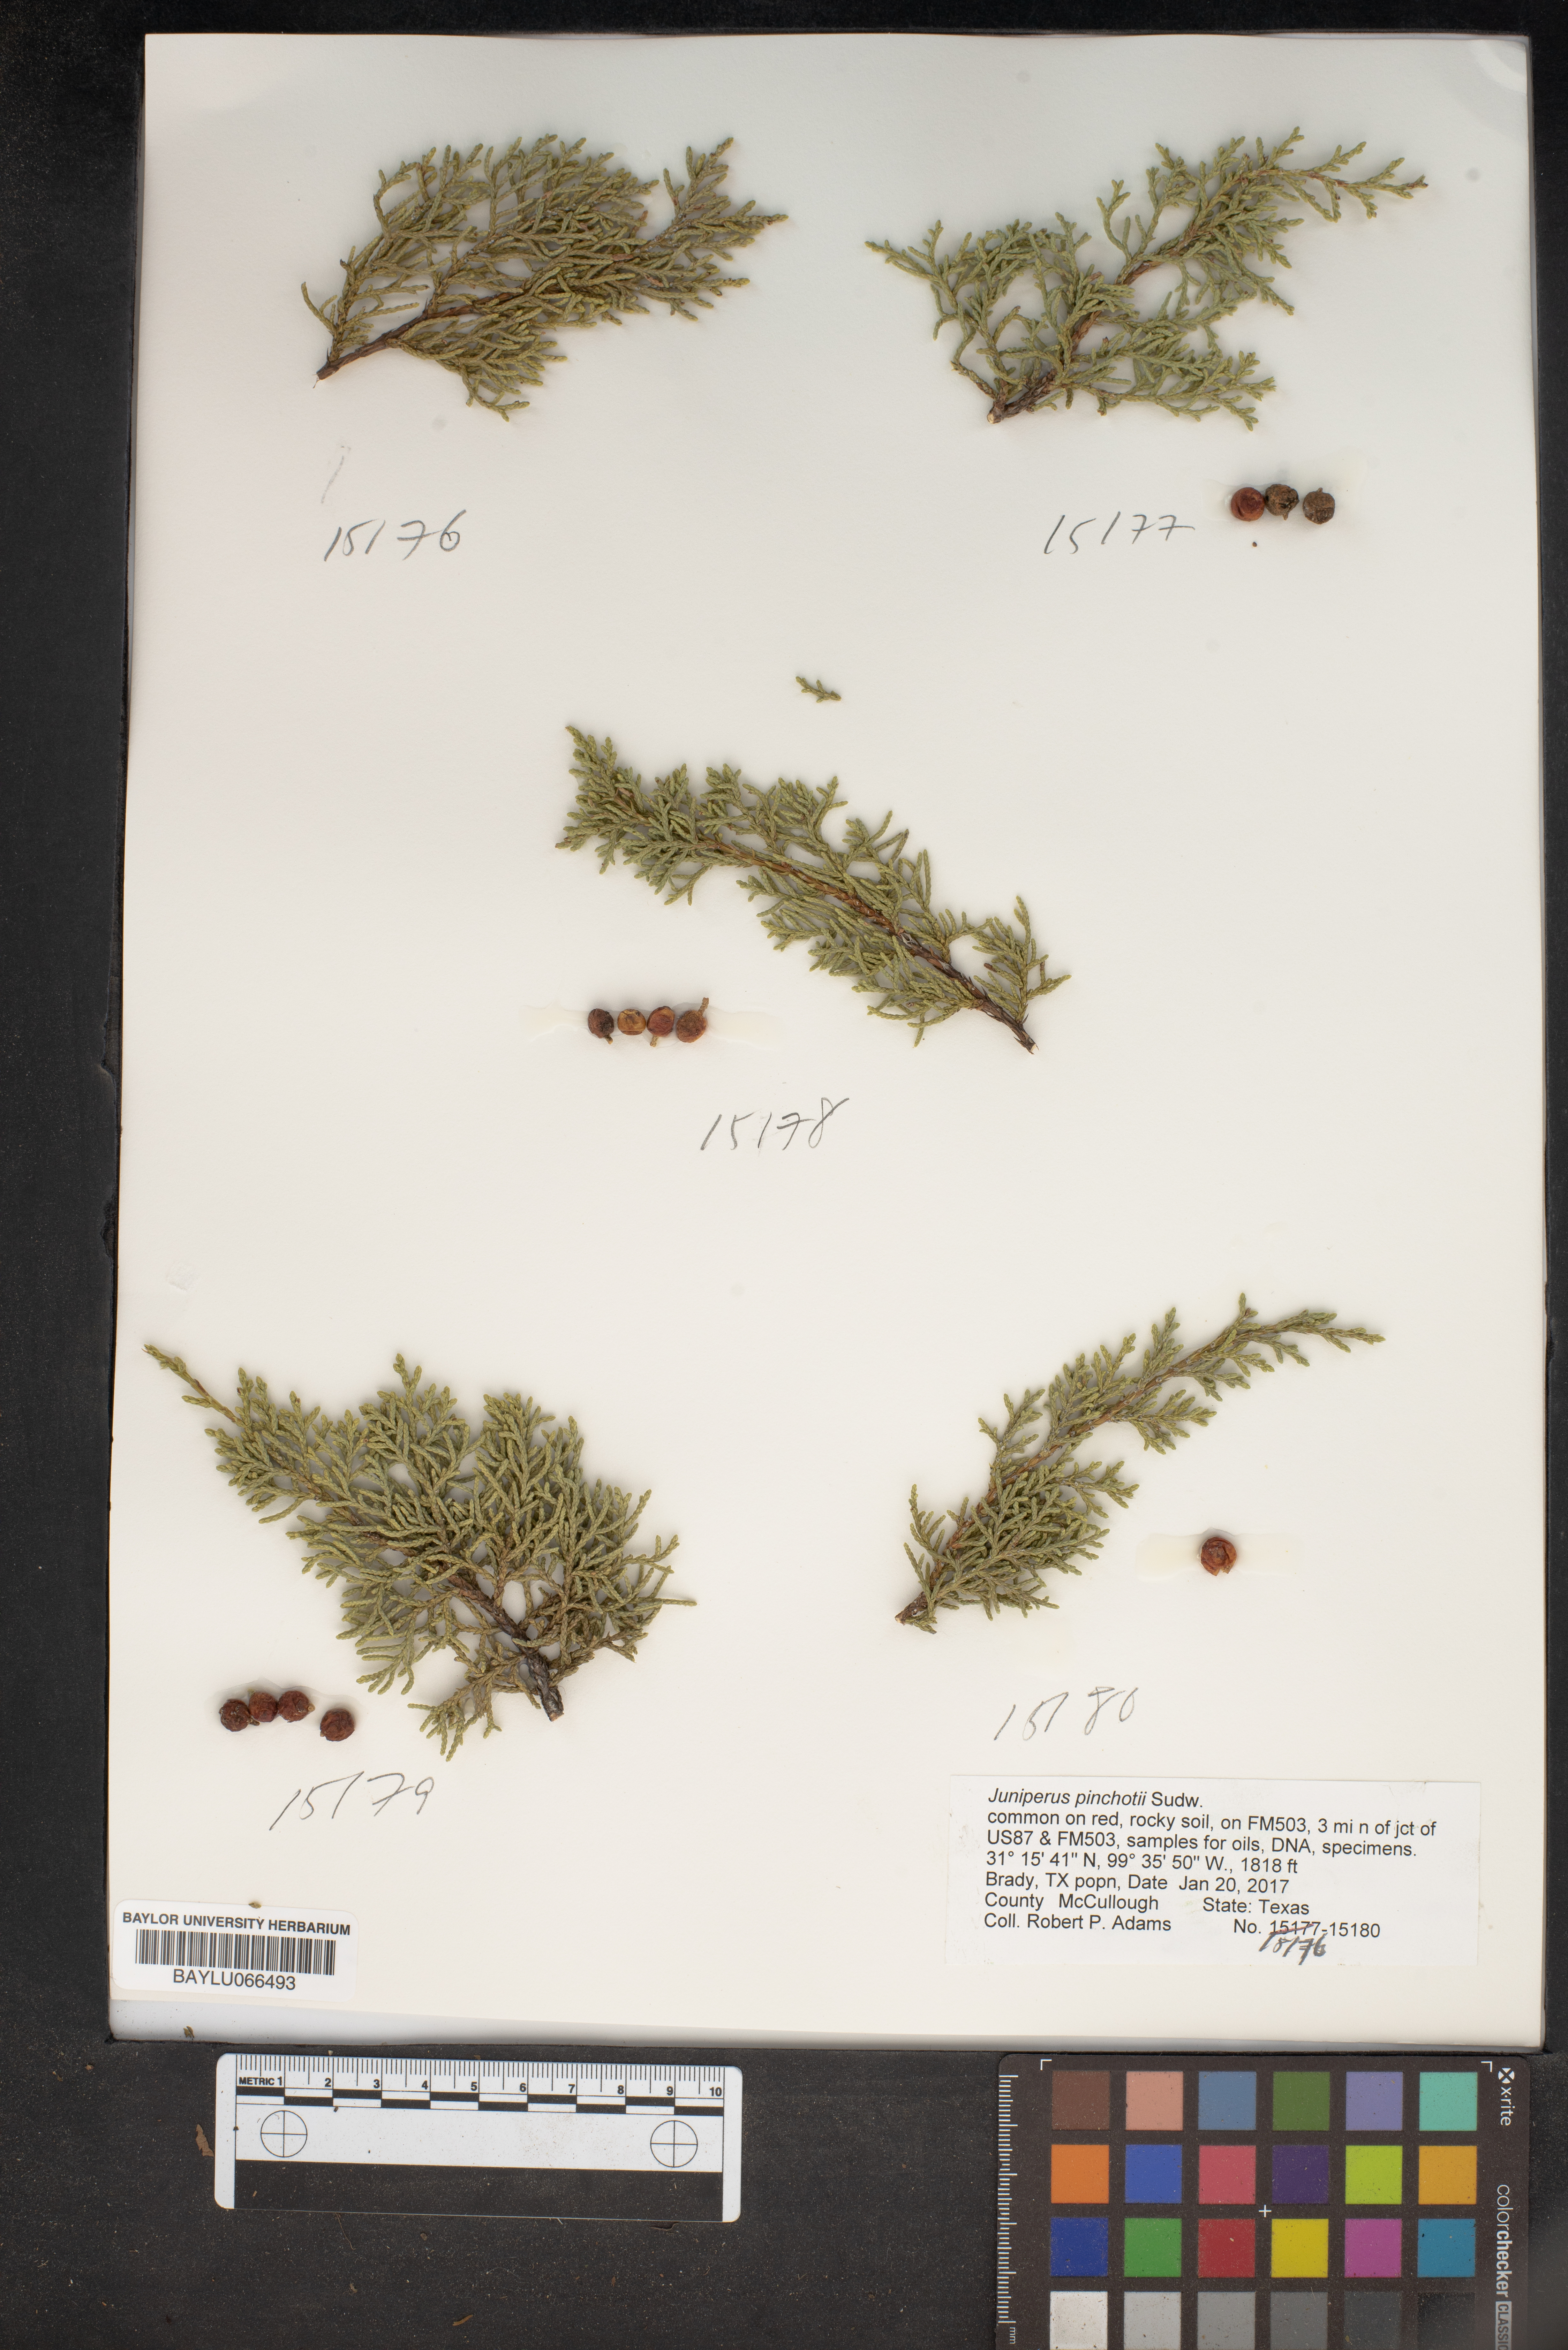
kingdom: Plantae
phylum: Tracheophyta
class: Pinopsida
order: Pinales
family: Cupressaceae
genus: Juniperus
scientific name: Juniperus pinchotii
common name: Pinchot juniper
